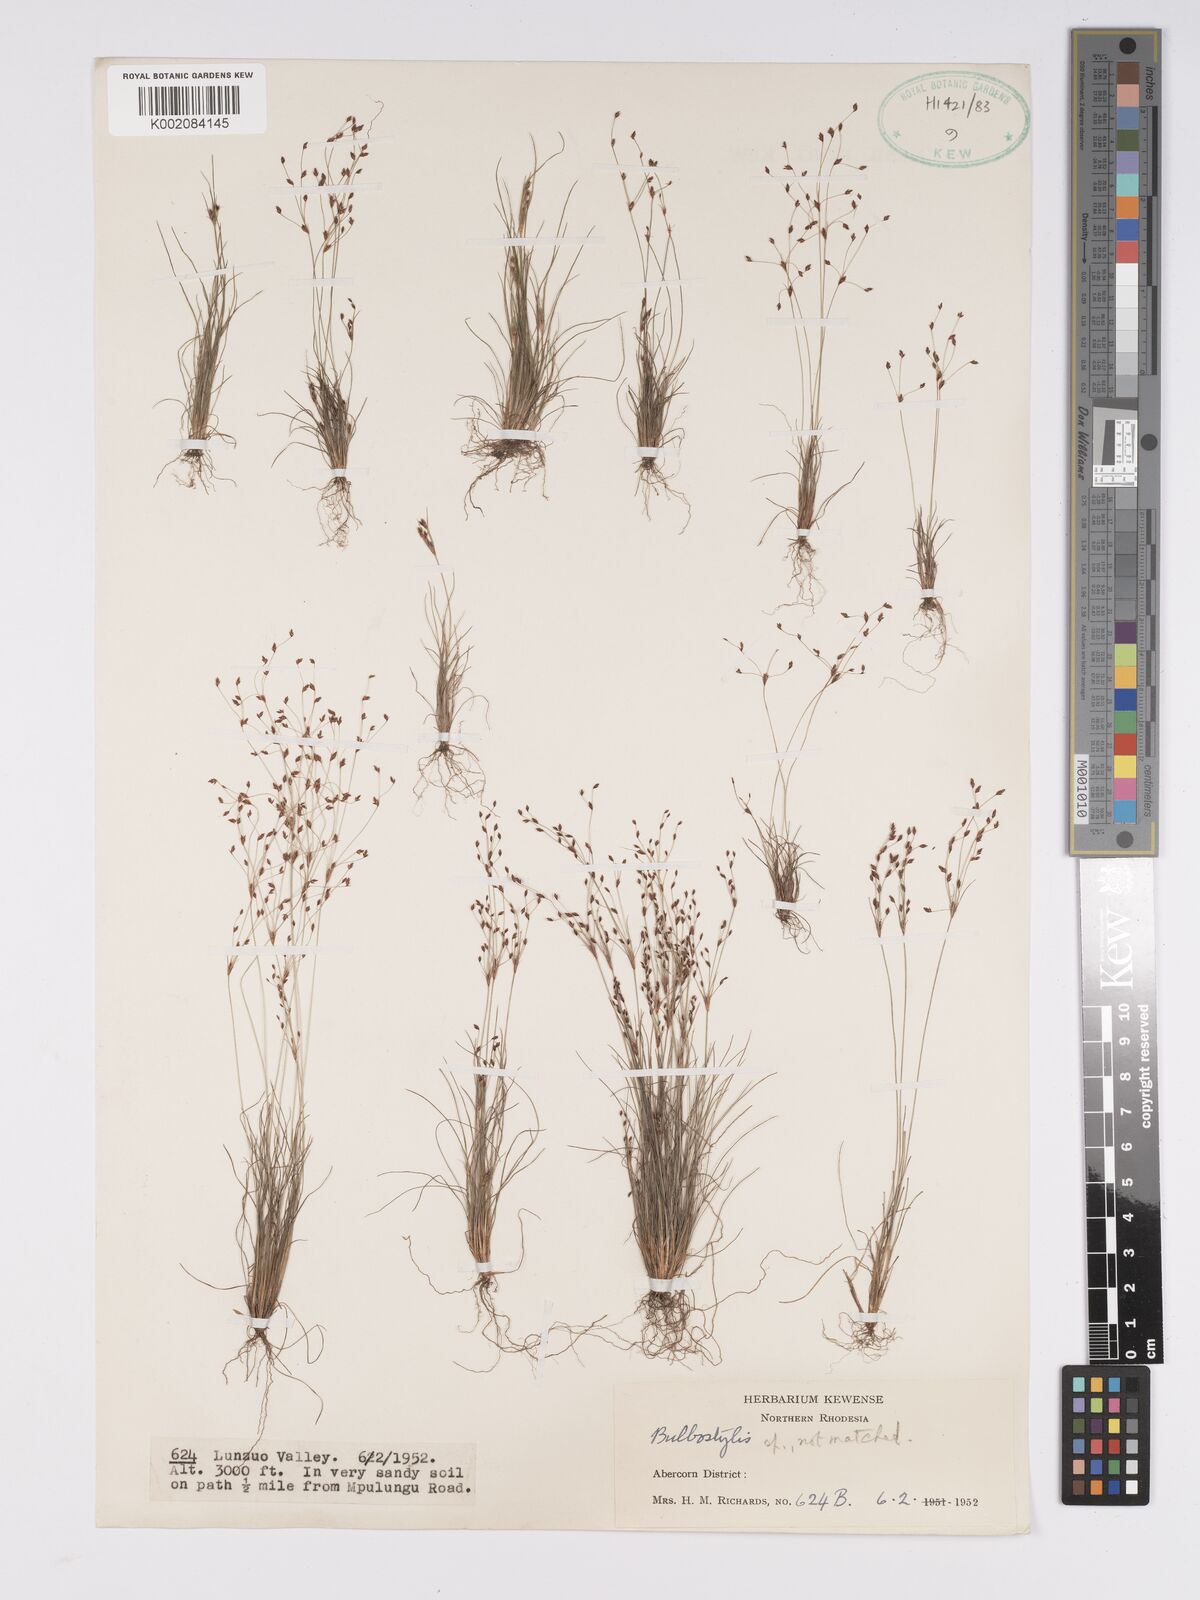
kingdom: Plantae
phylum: Tracheophyta
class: Liliopsida
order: Poales
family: Cyperaceae
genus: Bulbostylis
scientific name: Bulbostylis
